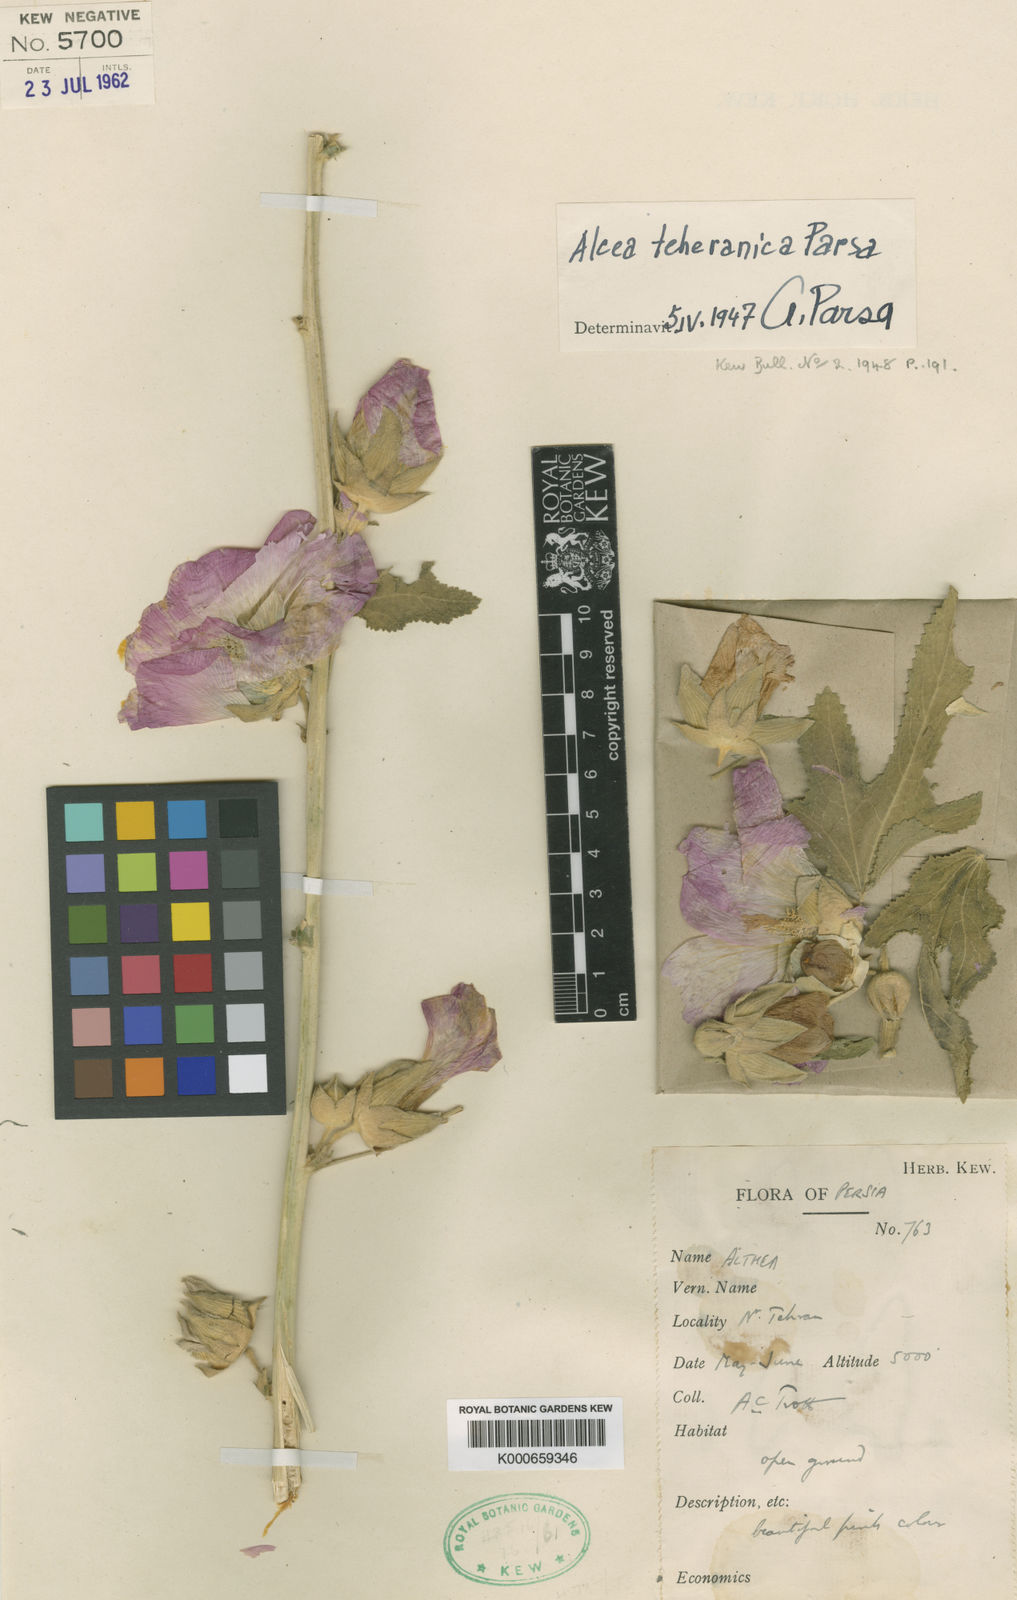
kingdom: Plantae
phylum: Tracheophyta
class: Magnoliopsida
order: Malvales
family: Malvaceae
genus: Alcea
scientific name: Alcea teheranica
